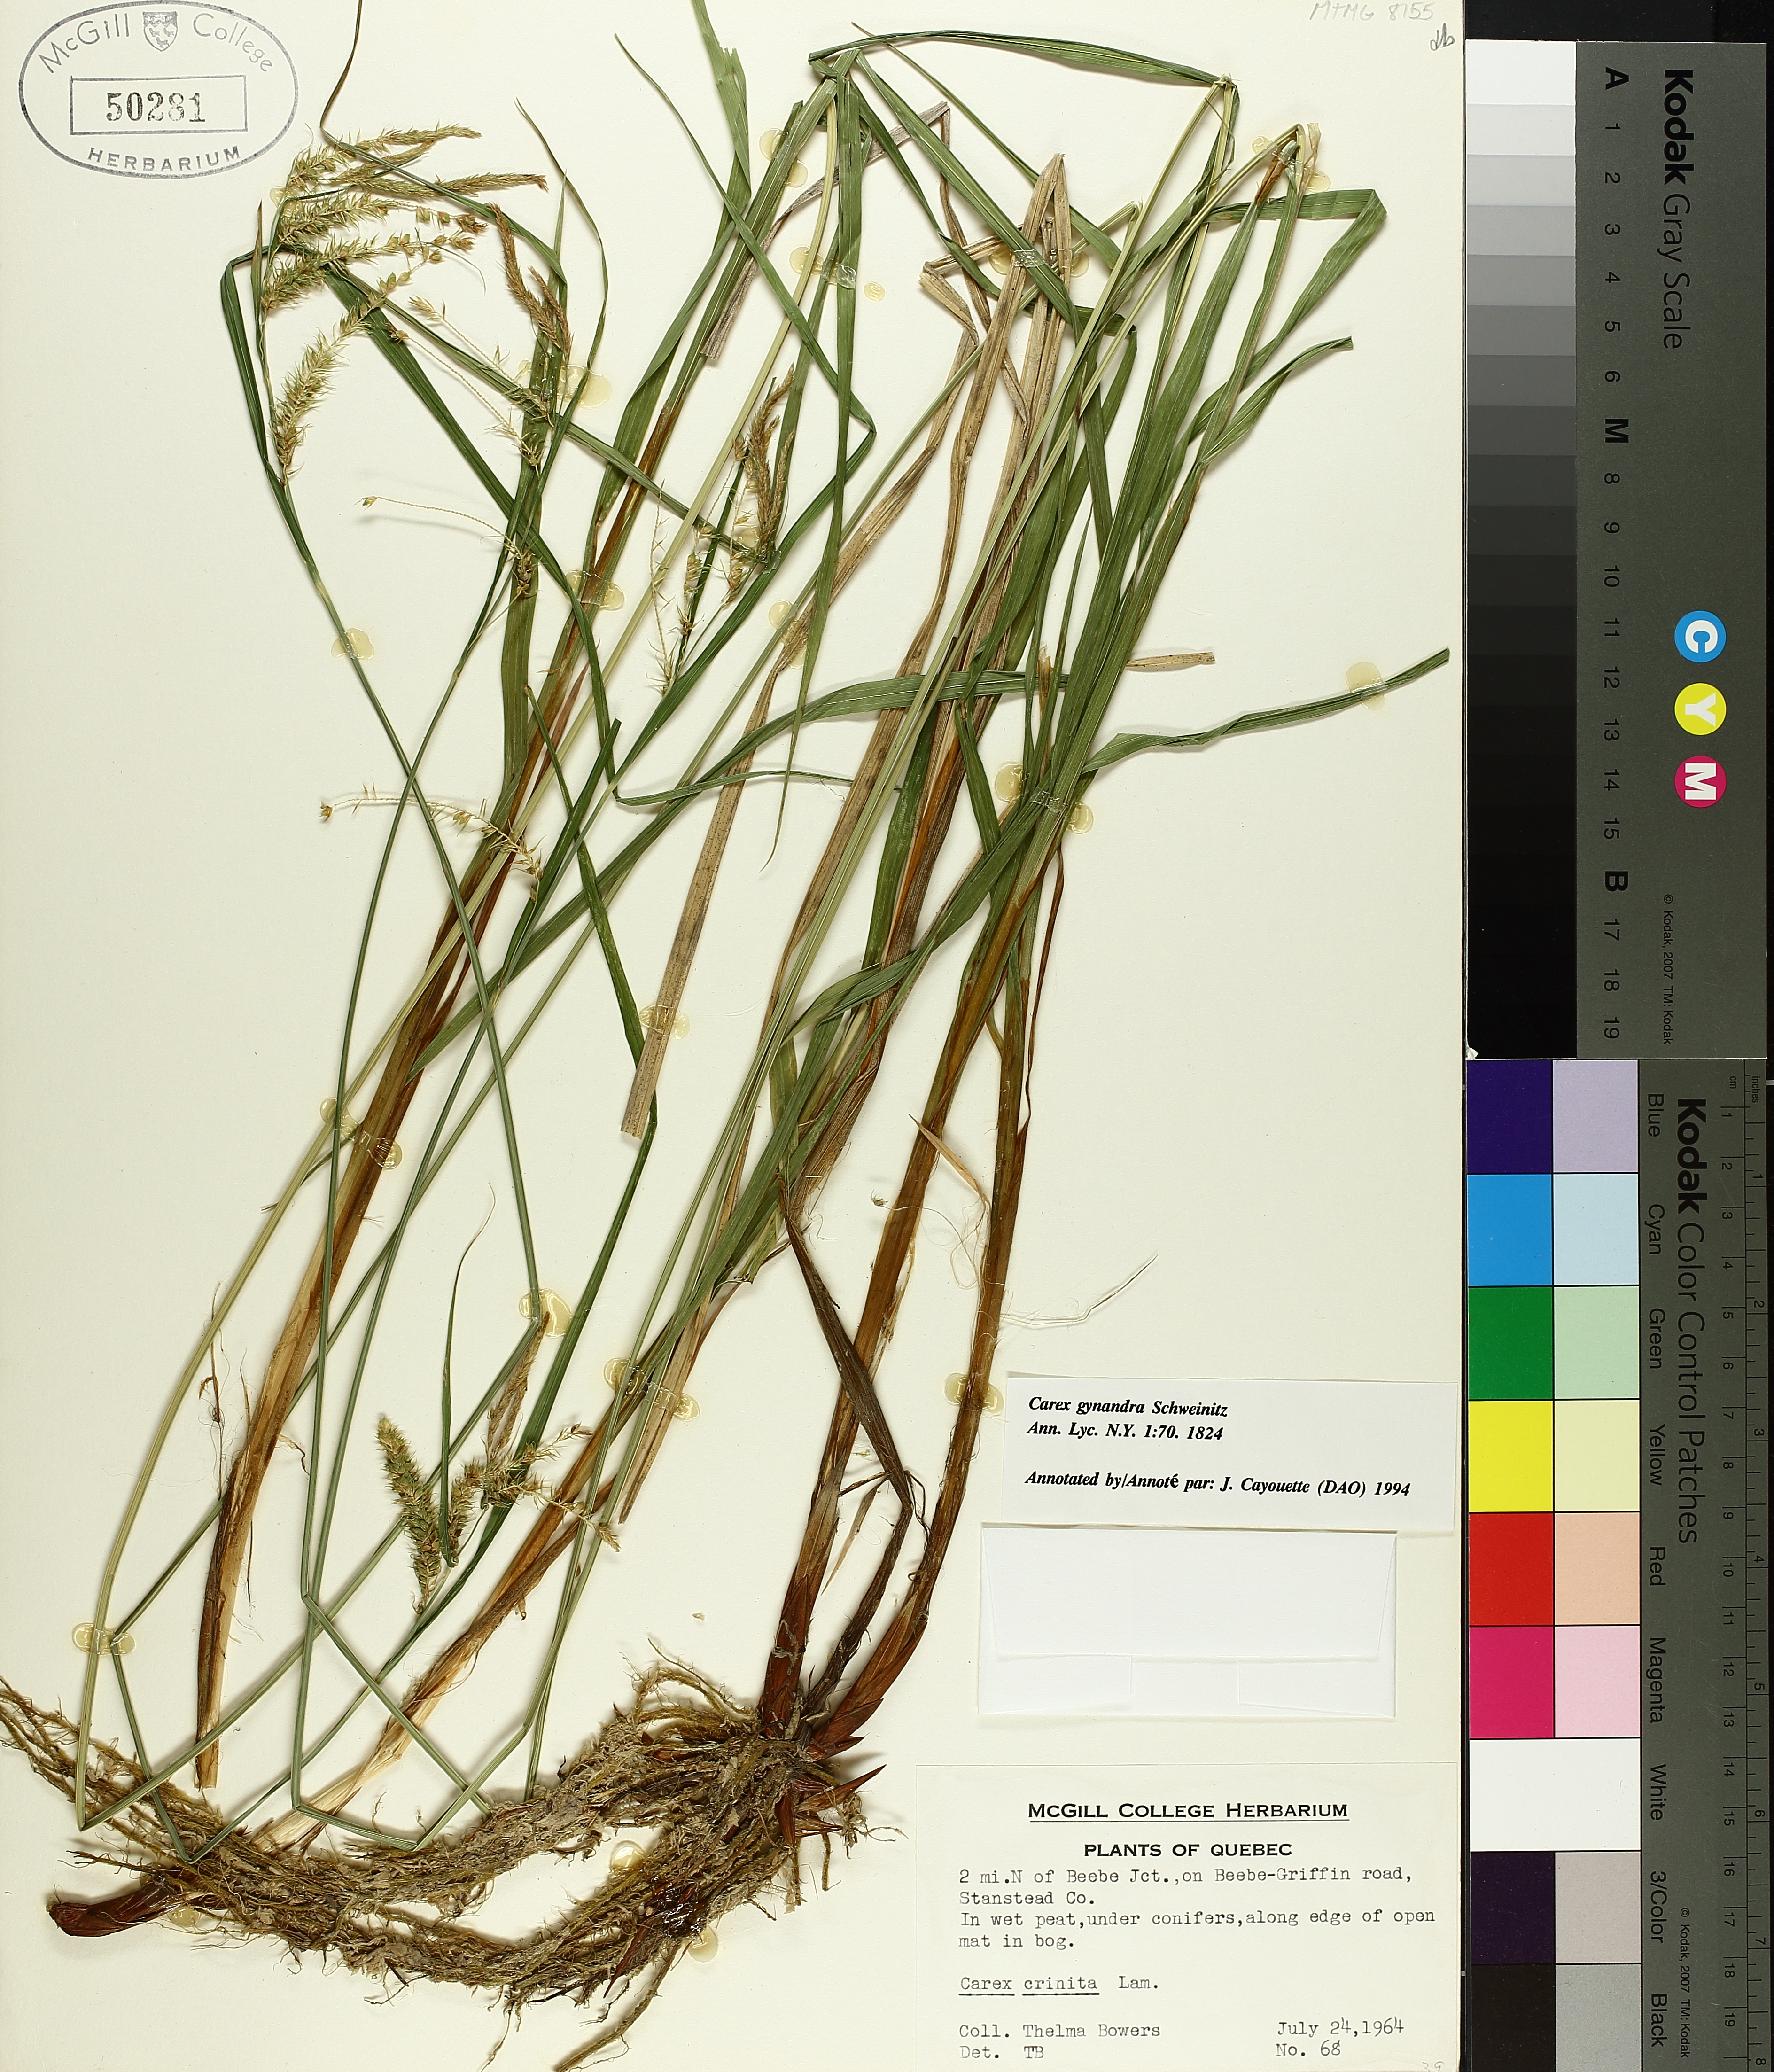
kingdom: Plantae
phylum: Tracheophyta
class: Liliopsida
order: Poales
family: Cyperaceae
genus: Carex
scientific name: Carex gynandra
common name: Nodding sedge
